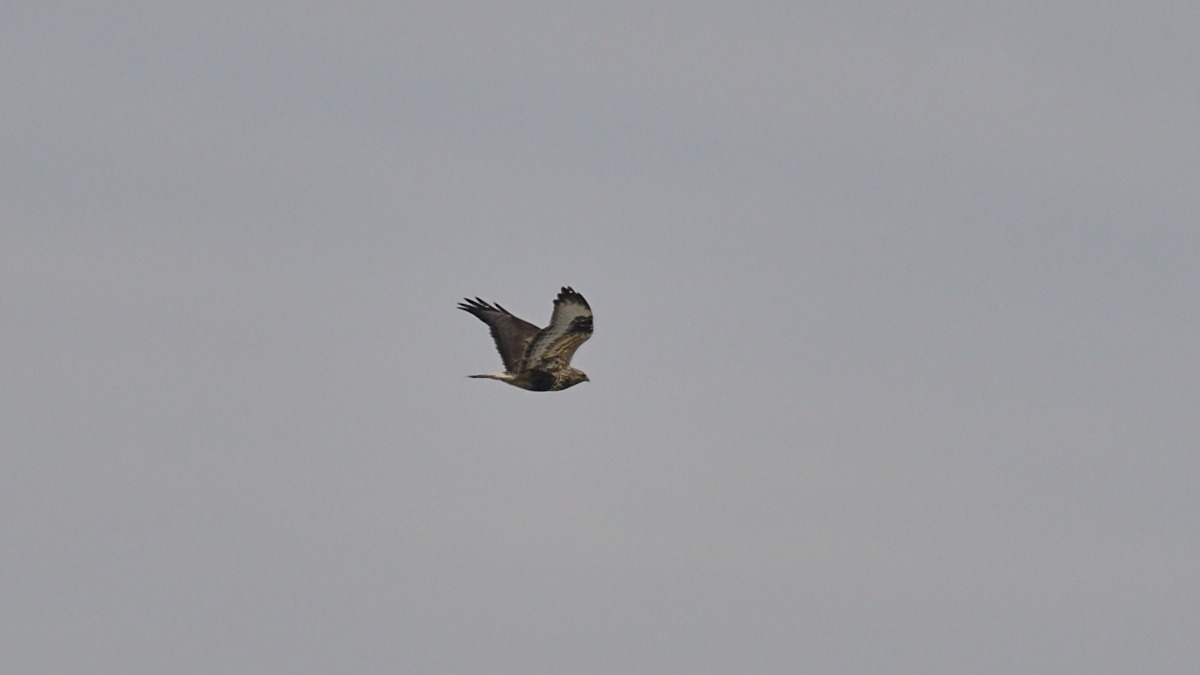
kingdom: Animalia
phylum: Chordata
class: Aves
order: Accipitriformes
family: Accipitridae
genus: Buteo
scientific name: Buteo lagopus
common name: Fjeldvåge
